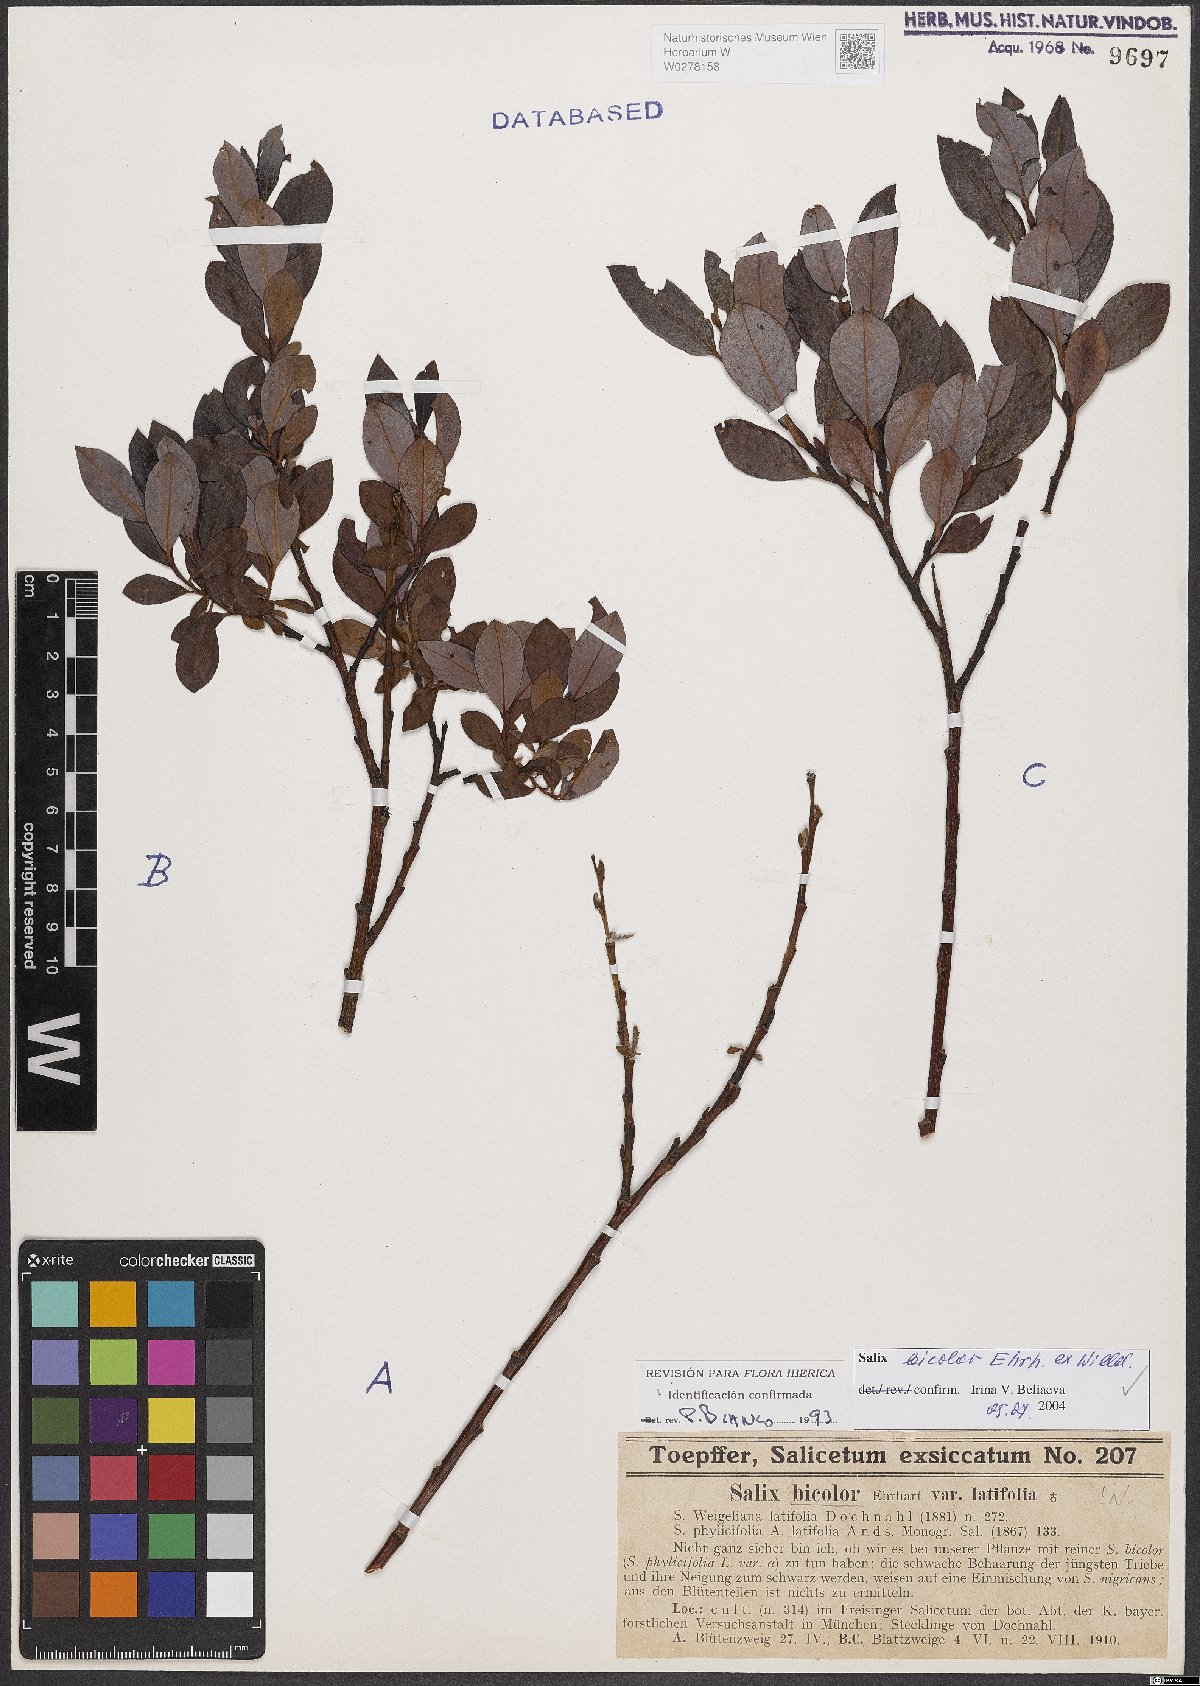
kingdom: Plantae
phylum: Tracheophyta
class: Magnoliopsida
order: Malpighiales
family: Salicaceae
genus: Salix
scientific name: Salix bicolor
